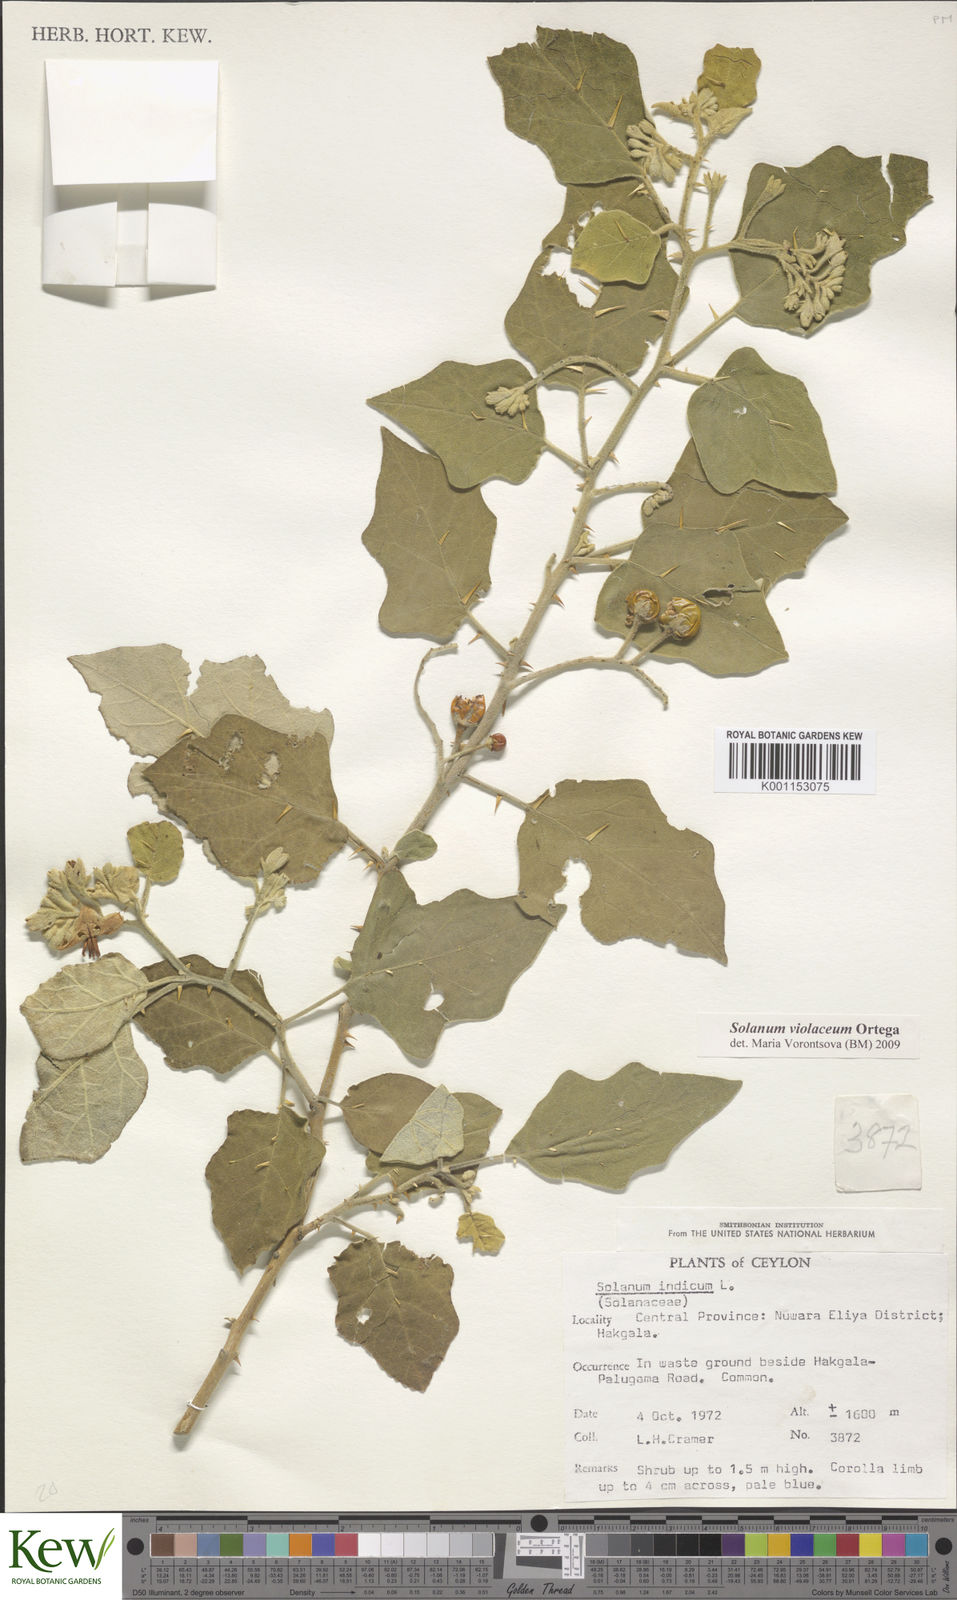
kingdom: Plantae
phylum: Tracheophyta
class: Magnoliopsida
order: Solanales
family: Solanaceae
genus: Solanum
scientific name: Solanum violaceum
